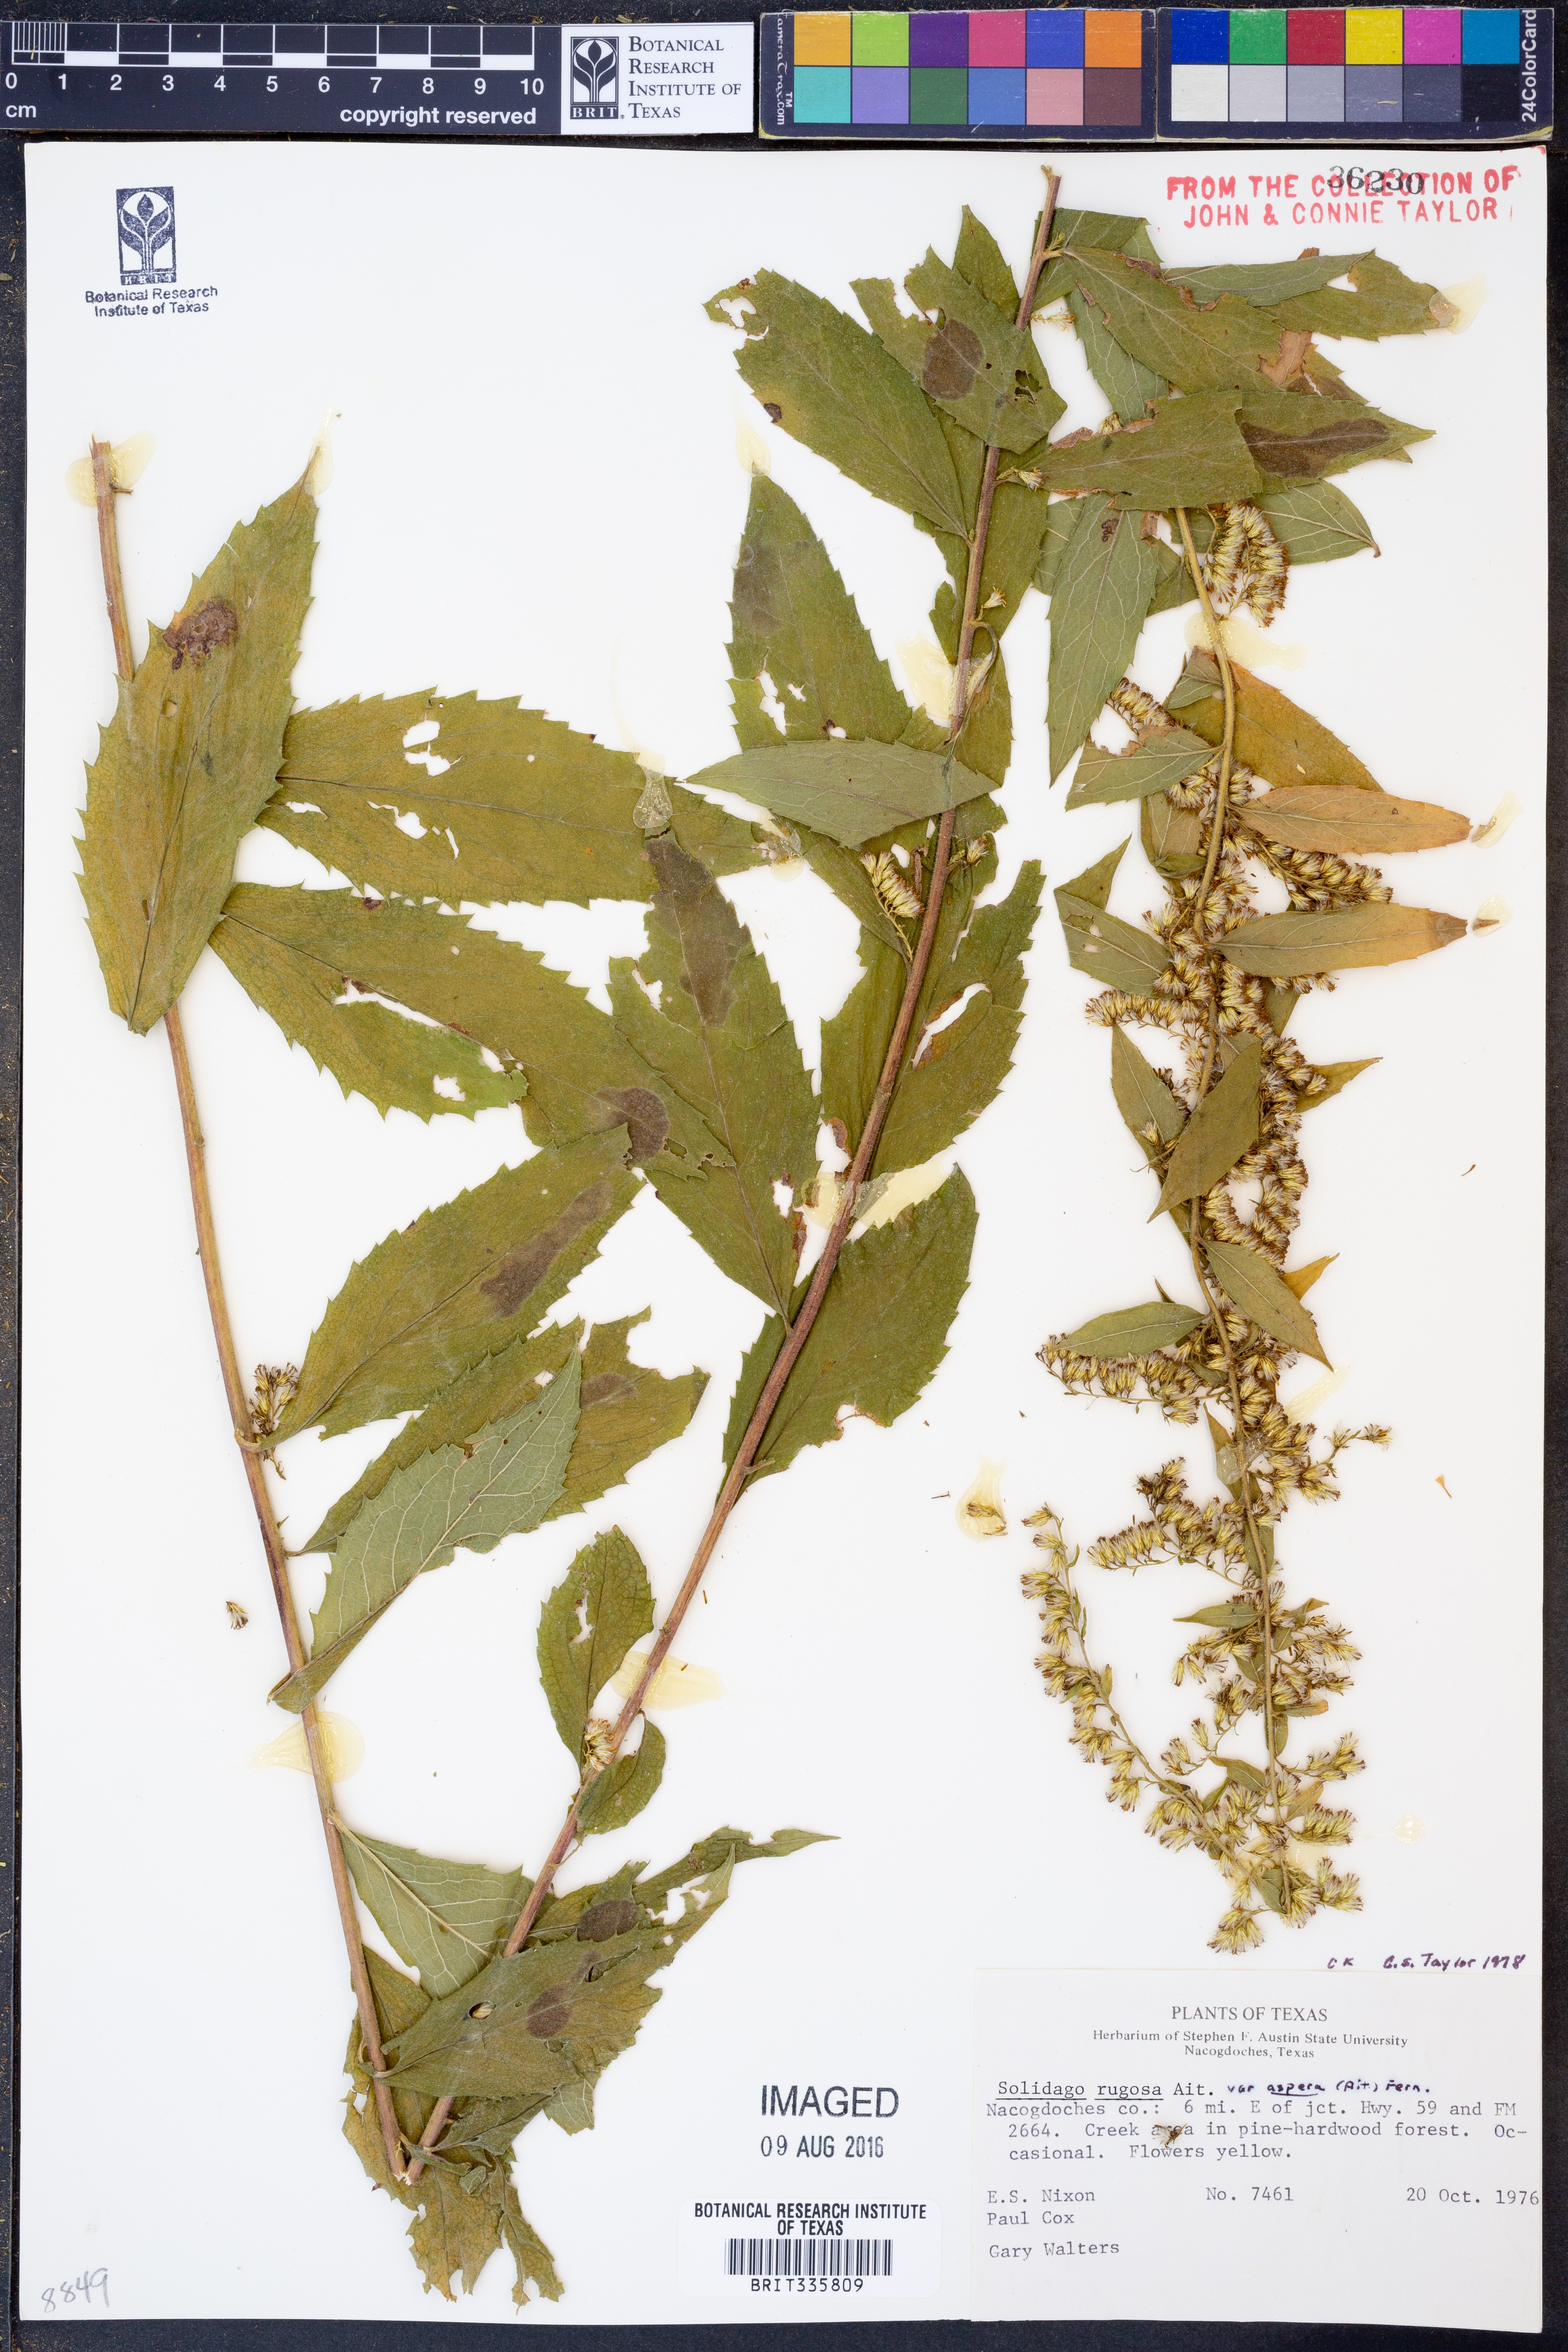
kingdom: Plantae
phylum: Tracheophyta
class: Magnoliopsida
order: Asterales
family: Asteraceae
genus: Solidago
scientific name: Solidago rugosa
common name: Rough-stemmed goldenrod
